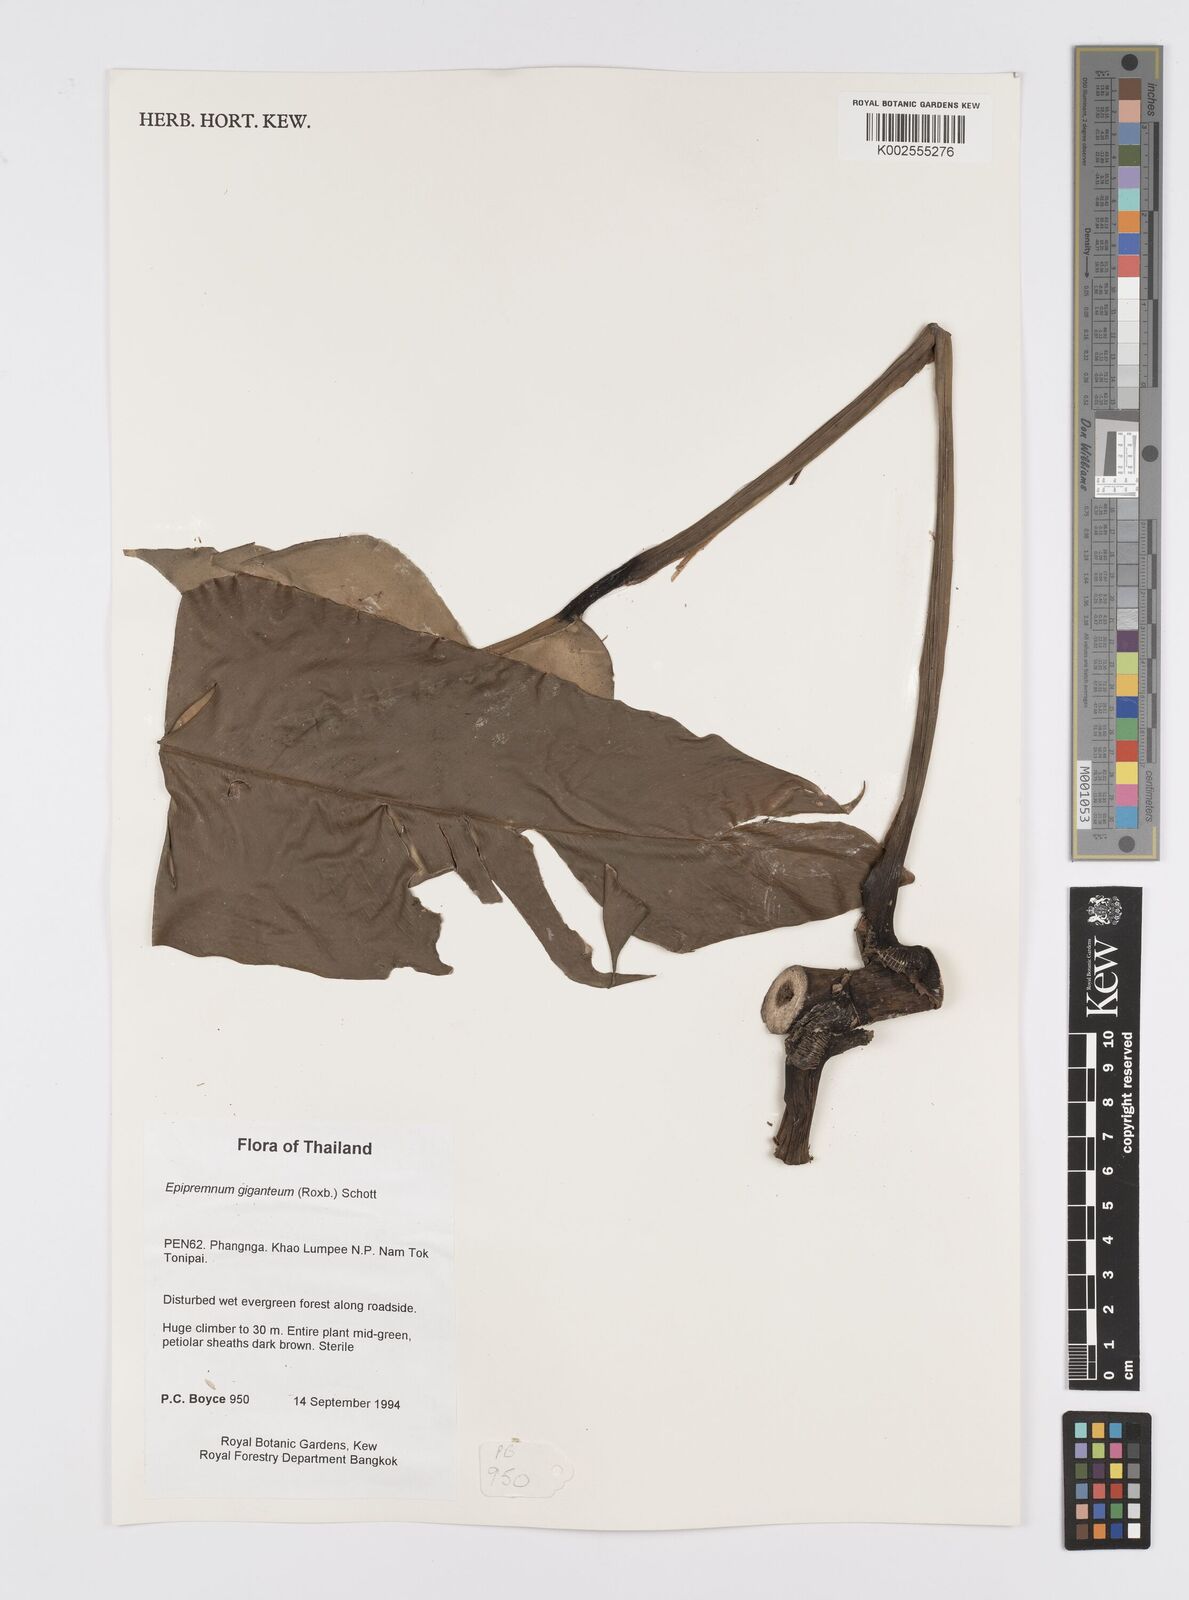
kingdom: Plantae
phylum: Tracheophyta
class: Liliopsida
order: Alismatales
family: Araceae
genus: Epipremnum
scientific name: Epipremnum giganteum
